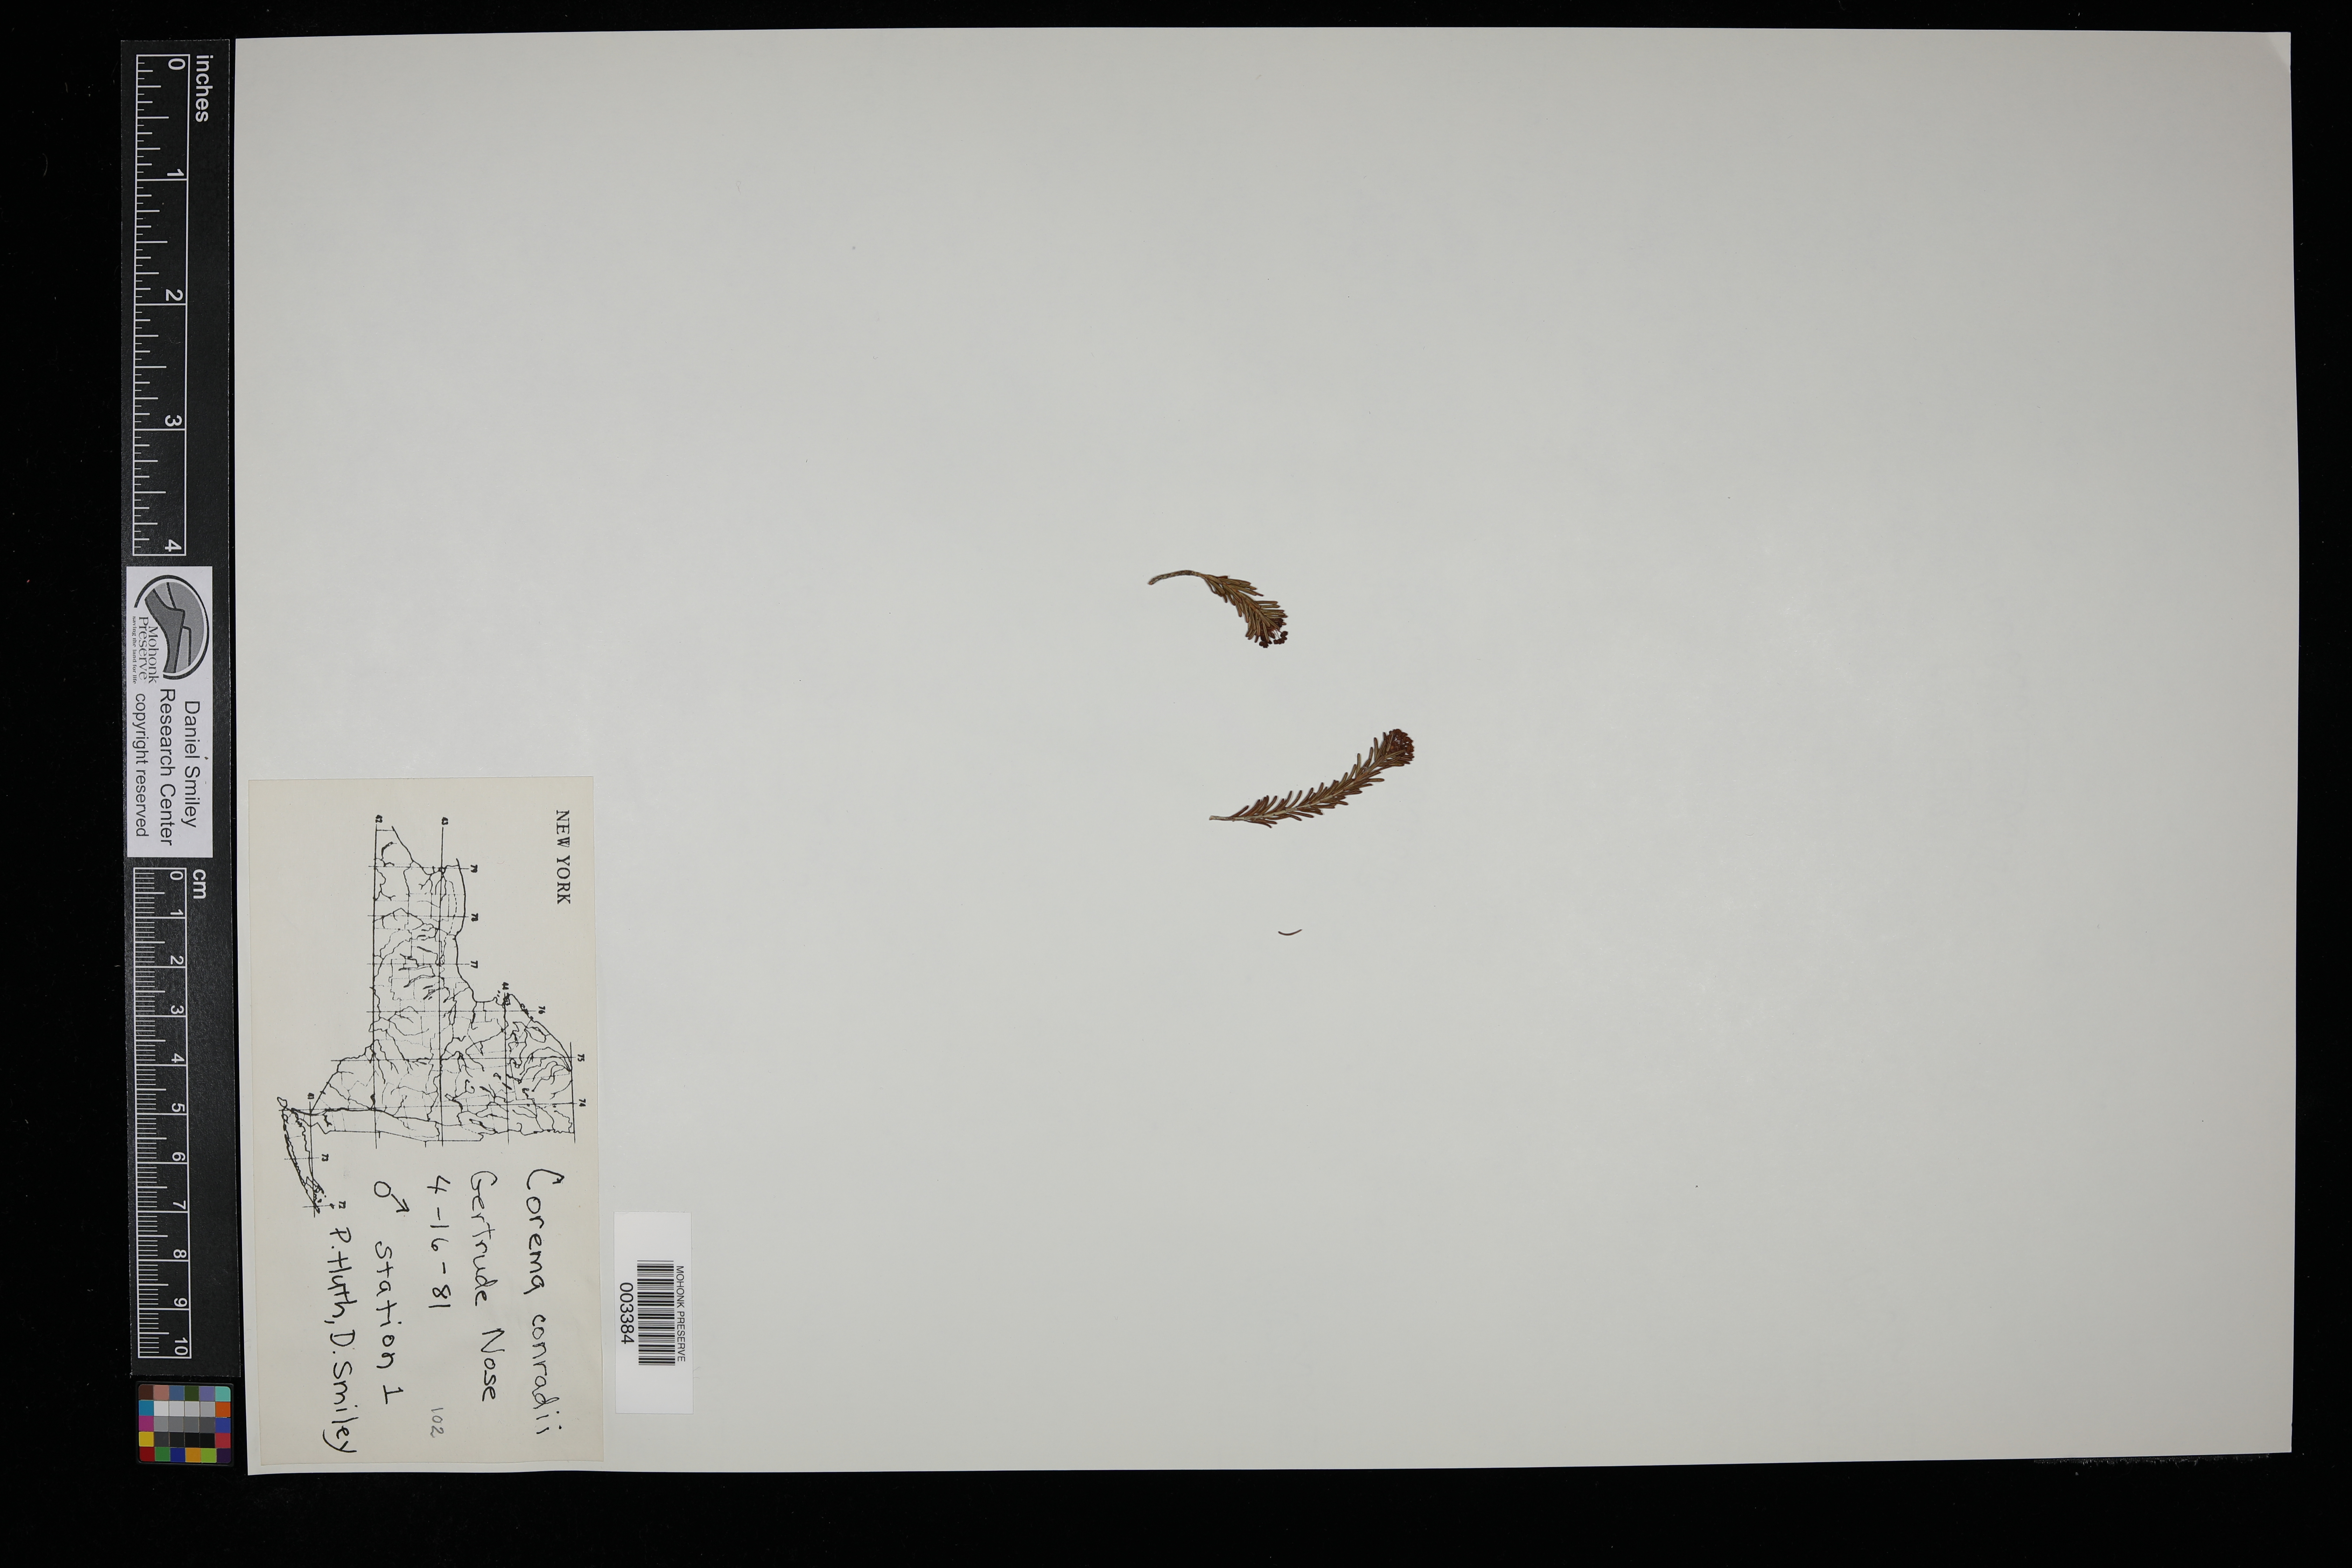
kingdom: Plantae
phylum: Tracheophyta
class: Magnoliopsida
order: Ericales
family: Ericaceae
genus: Corema
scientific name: Corema conradii
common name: Broom-crowberry
